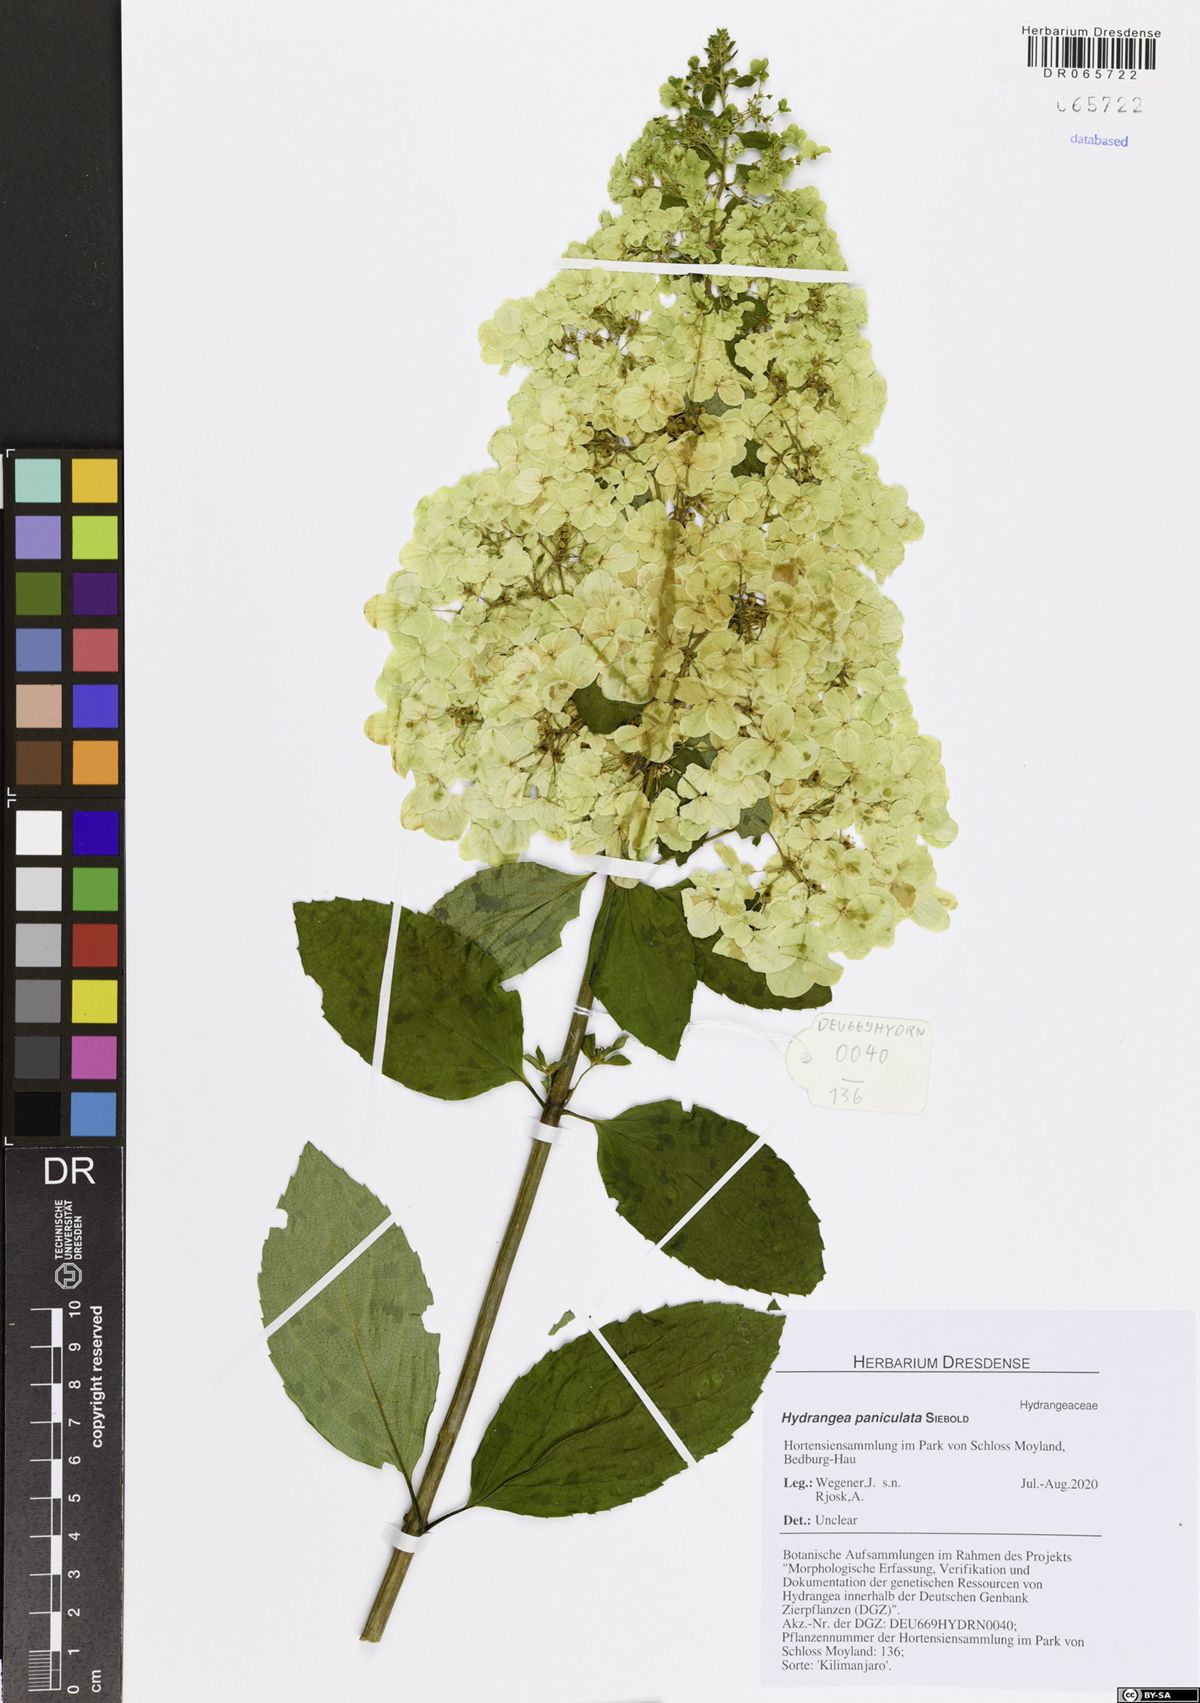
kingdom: Plantae
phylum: Tracheophyta
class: Magnoliopsida
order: Cornales
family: Hydrangeaceae
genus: Hydrangea
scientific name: Hydrangea paniculata
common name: Panicled hydrangea
